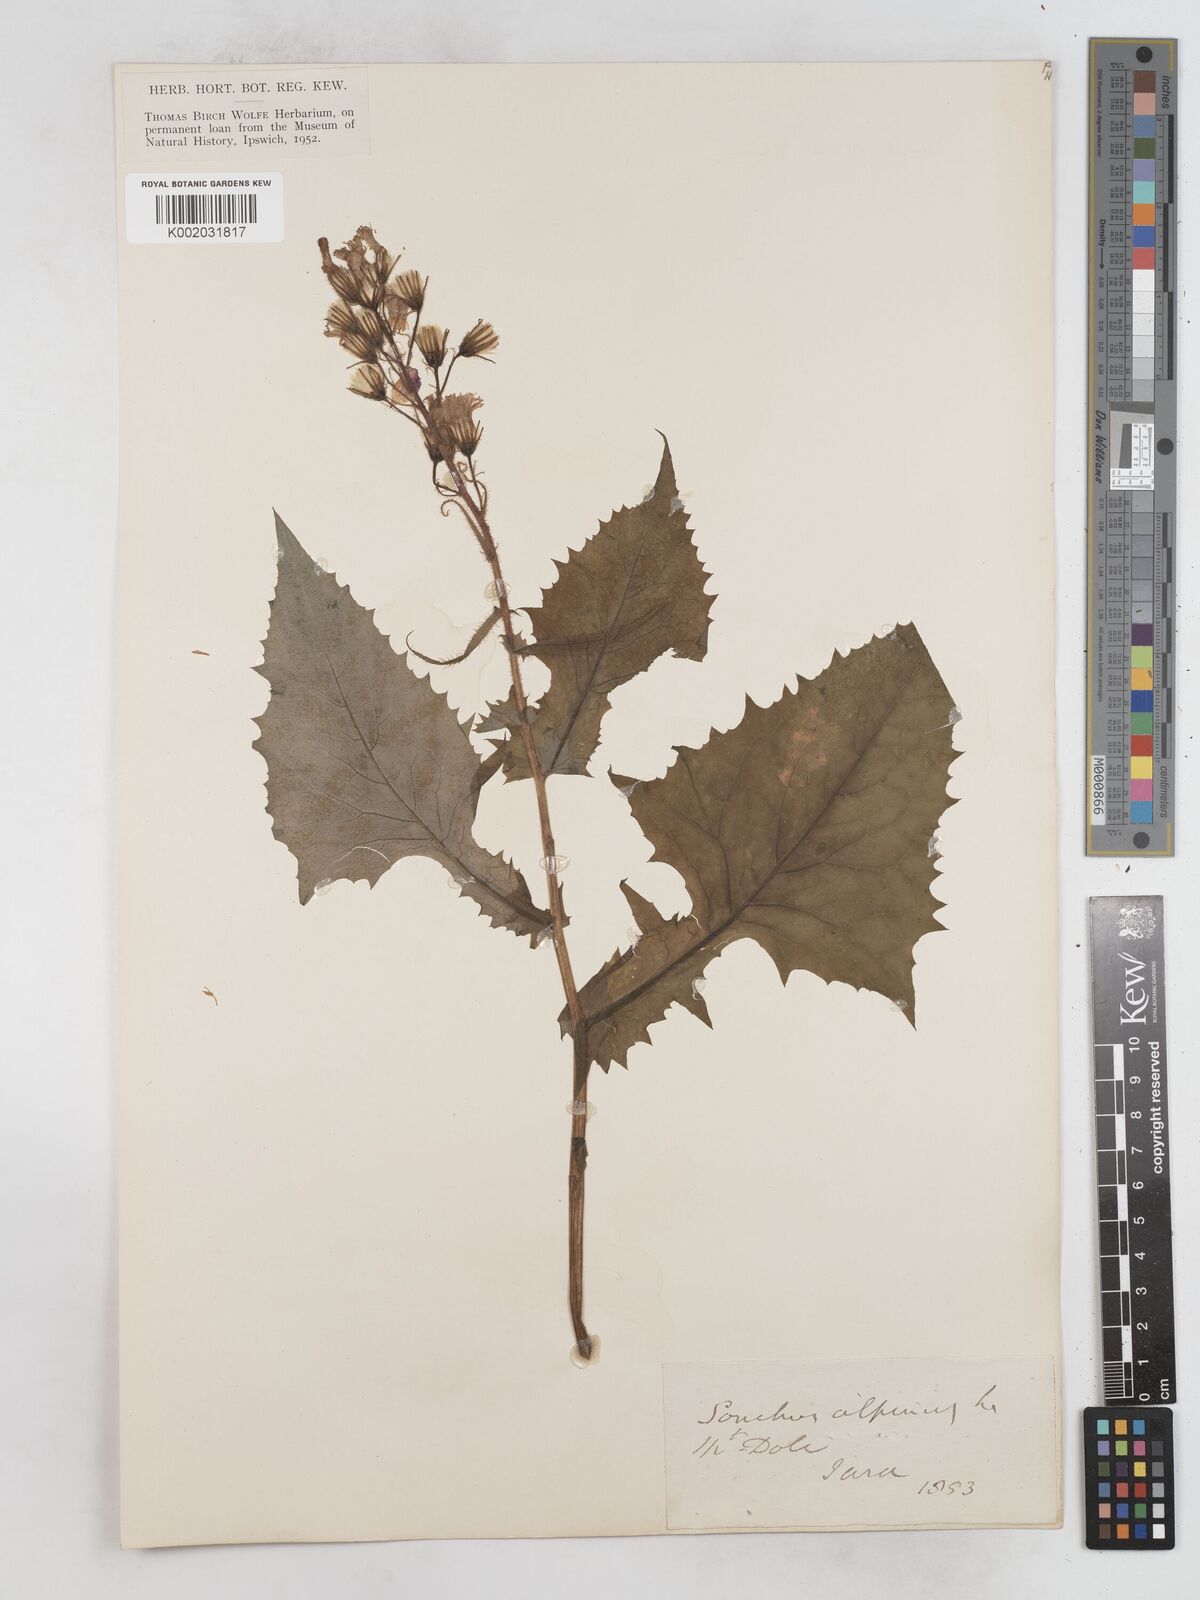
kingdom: Plantae
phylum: Tracheophyta
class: Magnoliopsida
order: Asterales
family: Asteraceae
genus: Cicerbita
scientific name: Cicerbita alpina
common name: Alpine blue-sow-thistle
